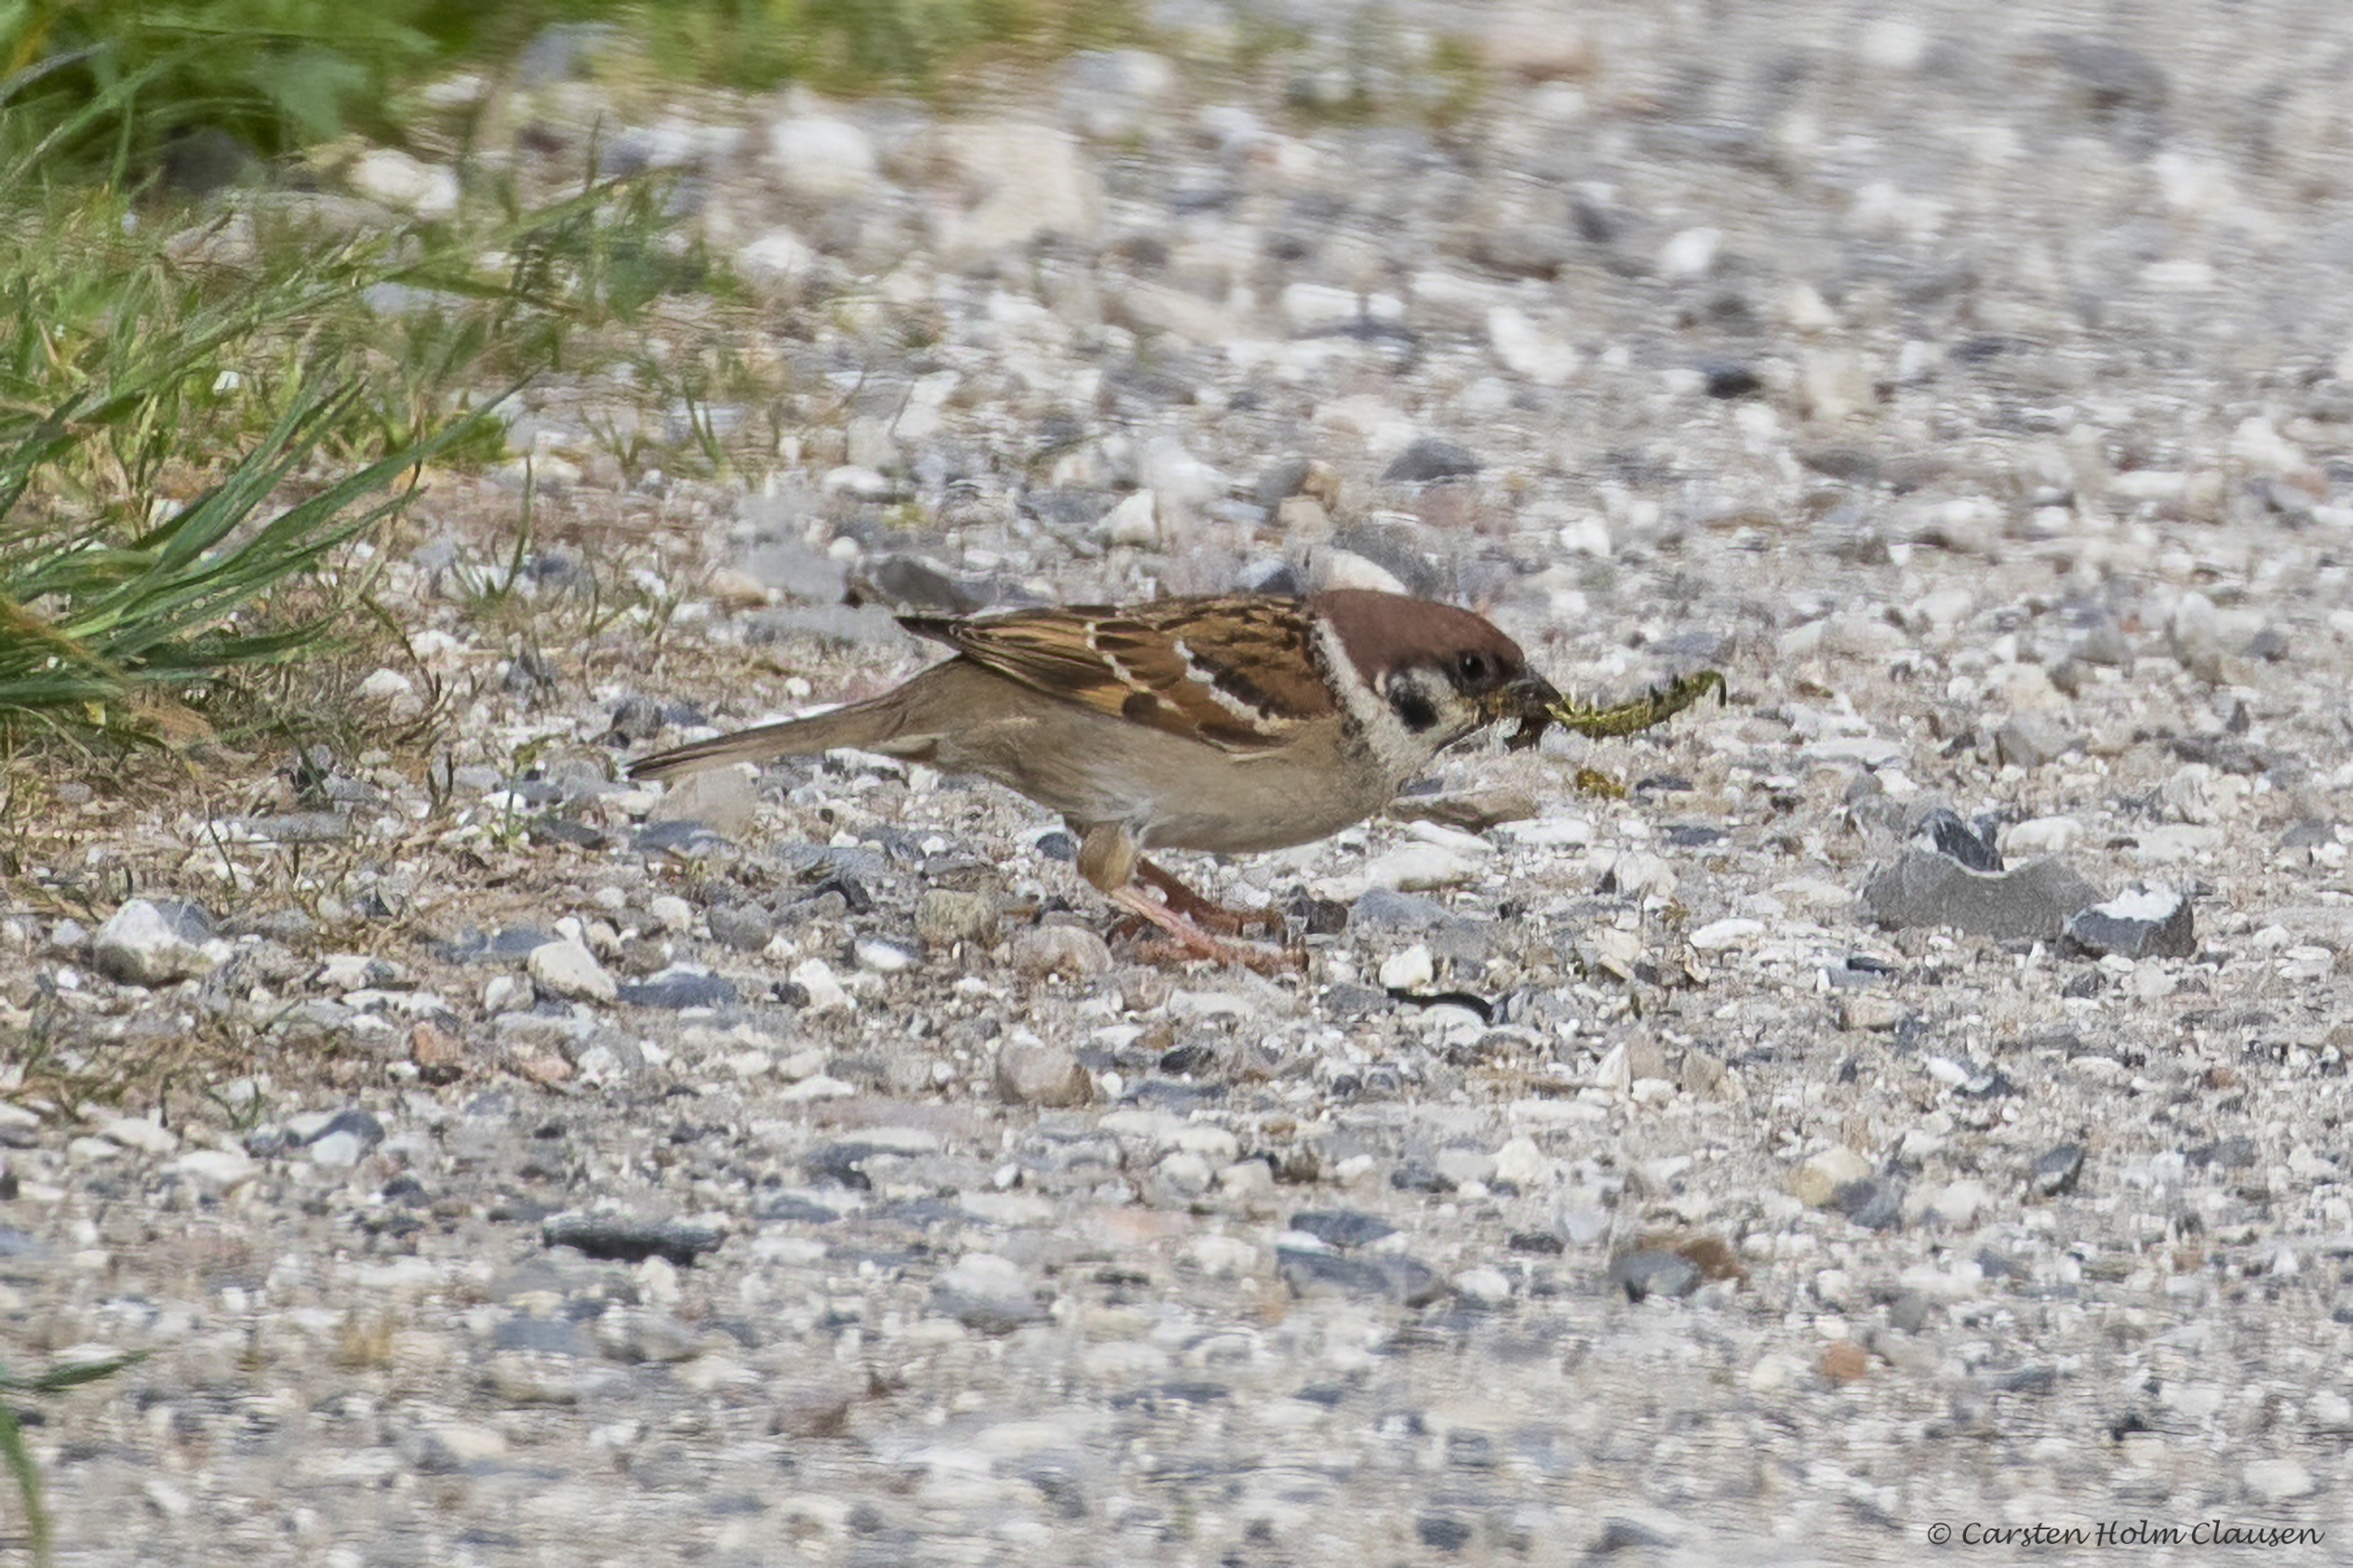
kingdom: Animalia
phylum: Chordata
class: Aves
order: Passeriformes
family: Passeridae
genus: Passer
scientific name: Passer montanus
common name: Skovspurv
